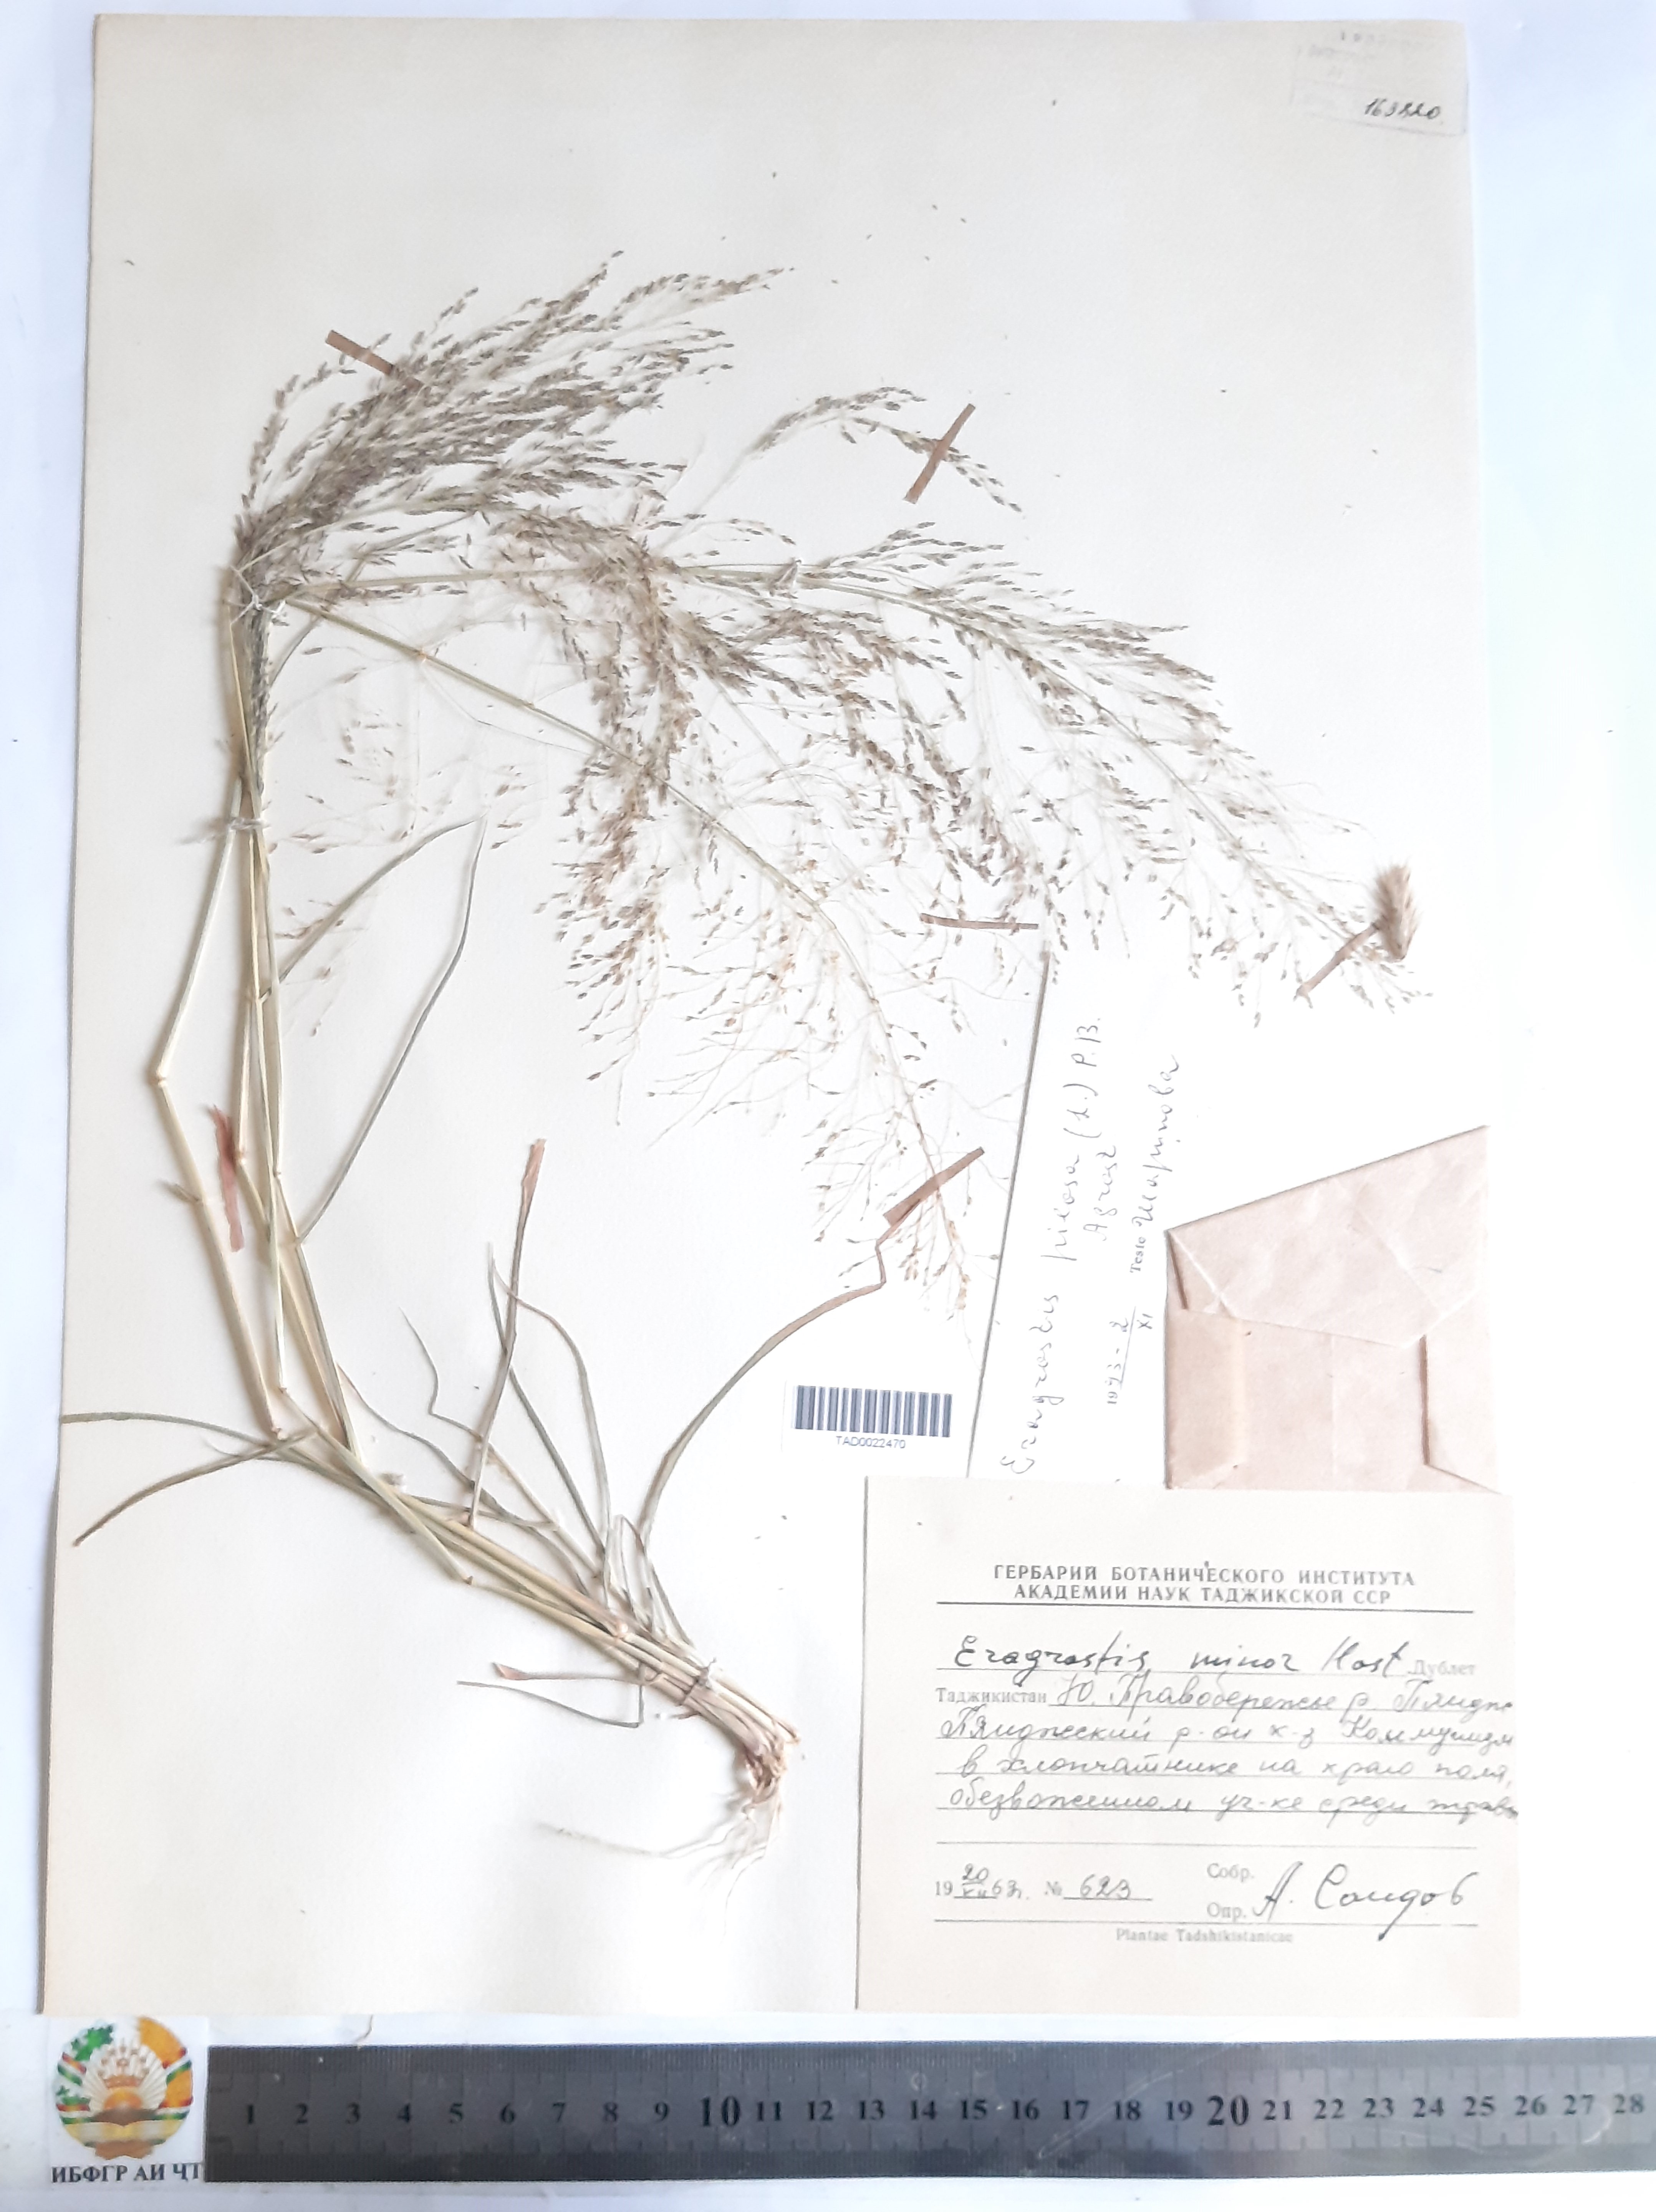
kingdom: Plantae
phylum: Tracheophyta
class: Liliopsida
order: Poales
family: Poaceae
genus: Eragrostis
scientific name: Eragrostis pilosa
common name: Indian lovegrass
